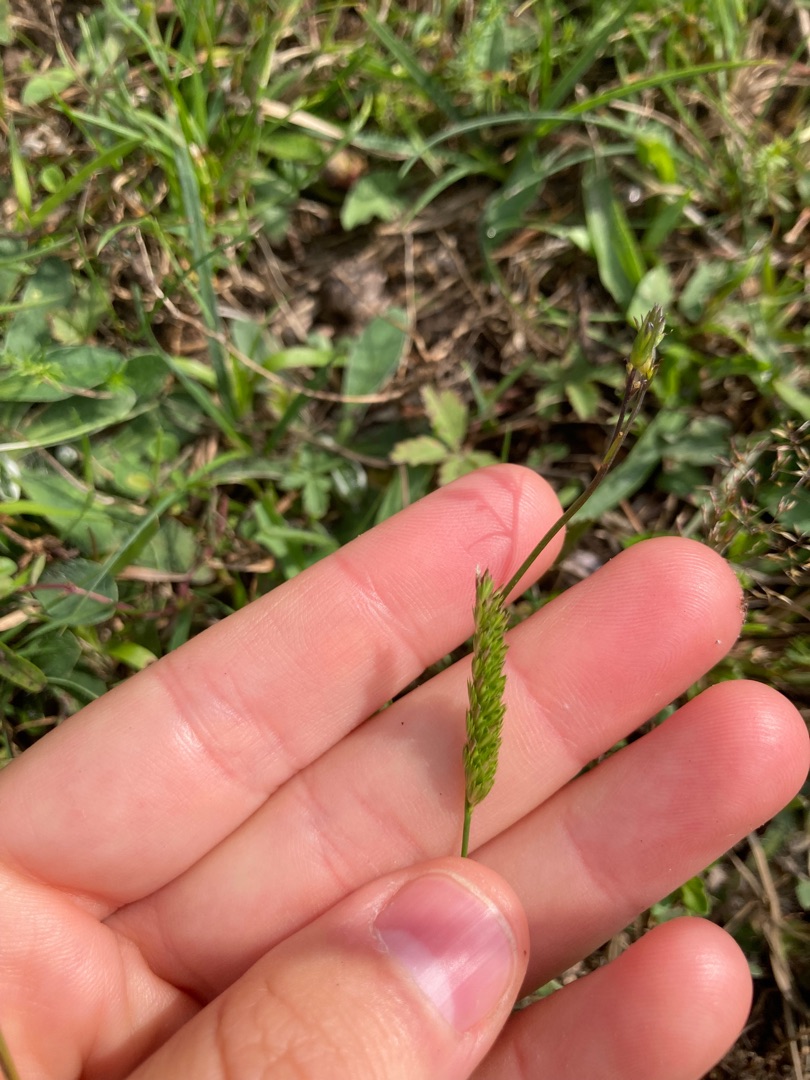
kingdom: Plantae
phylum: Tracheophyta
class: Liliopsida
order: Poales
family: Poaceae
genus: Cynosurus
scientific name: Cynosurus cristatus
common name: Kamgræs
